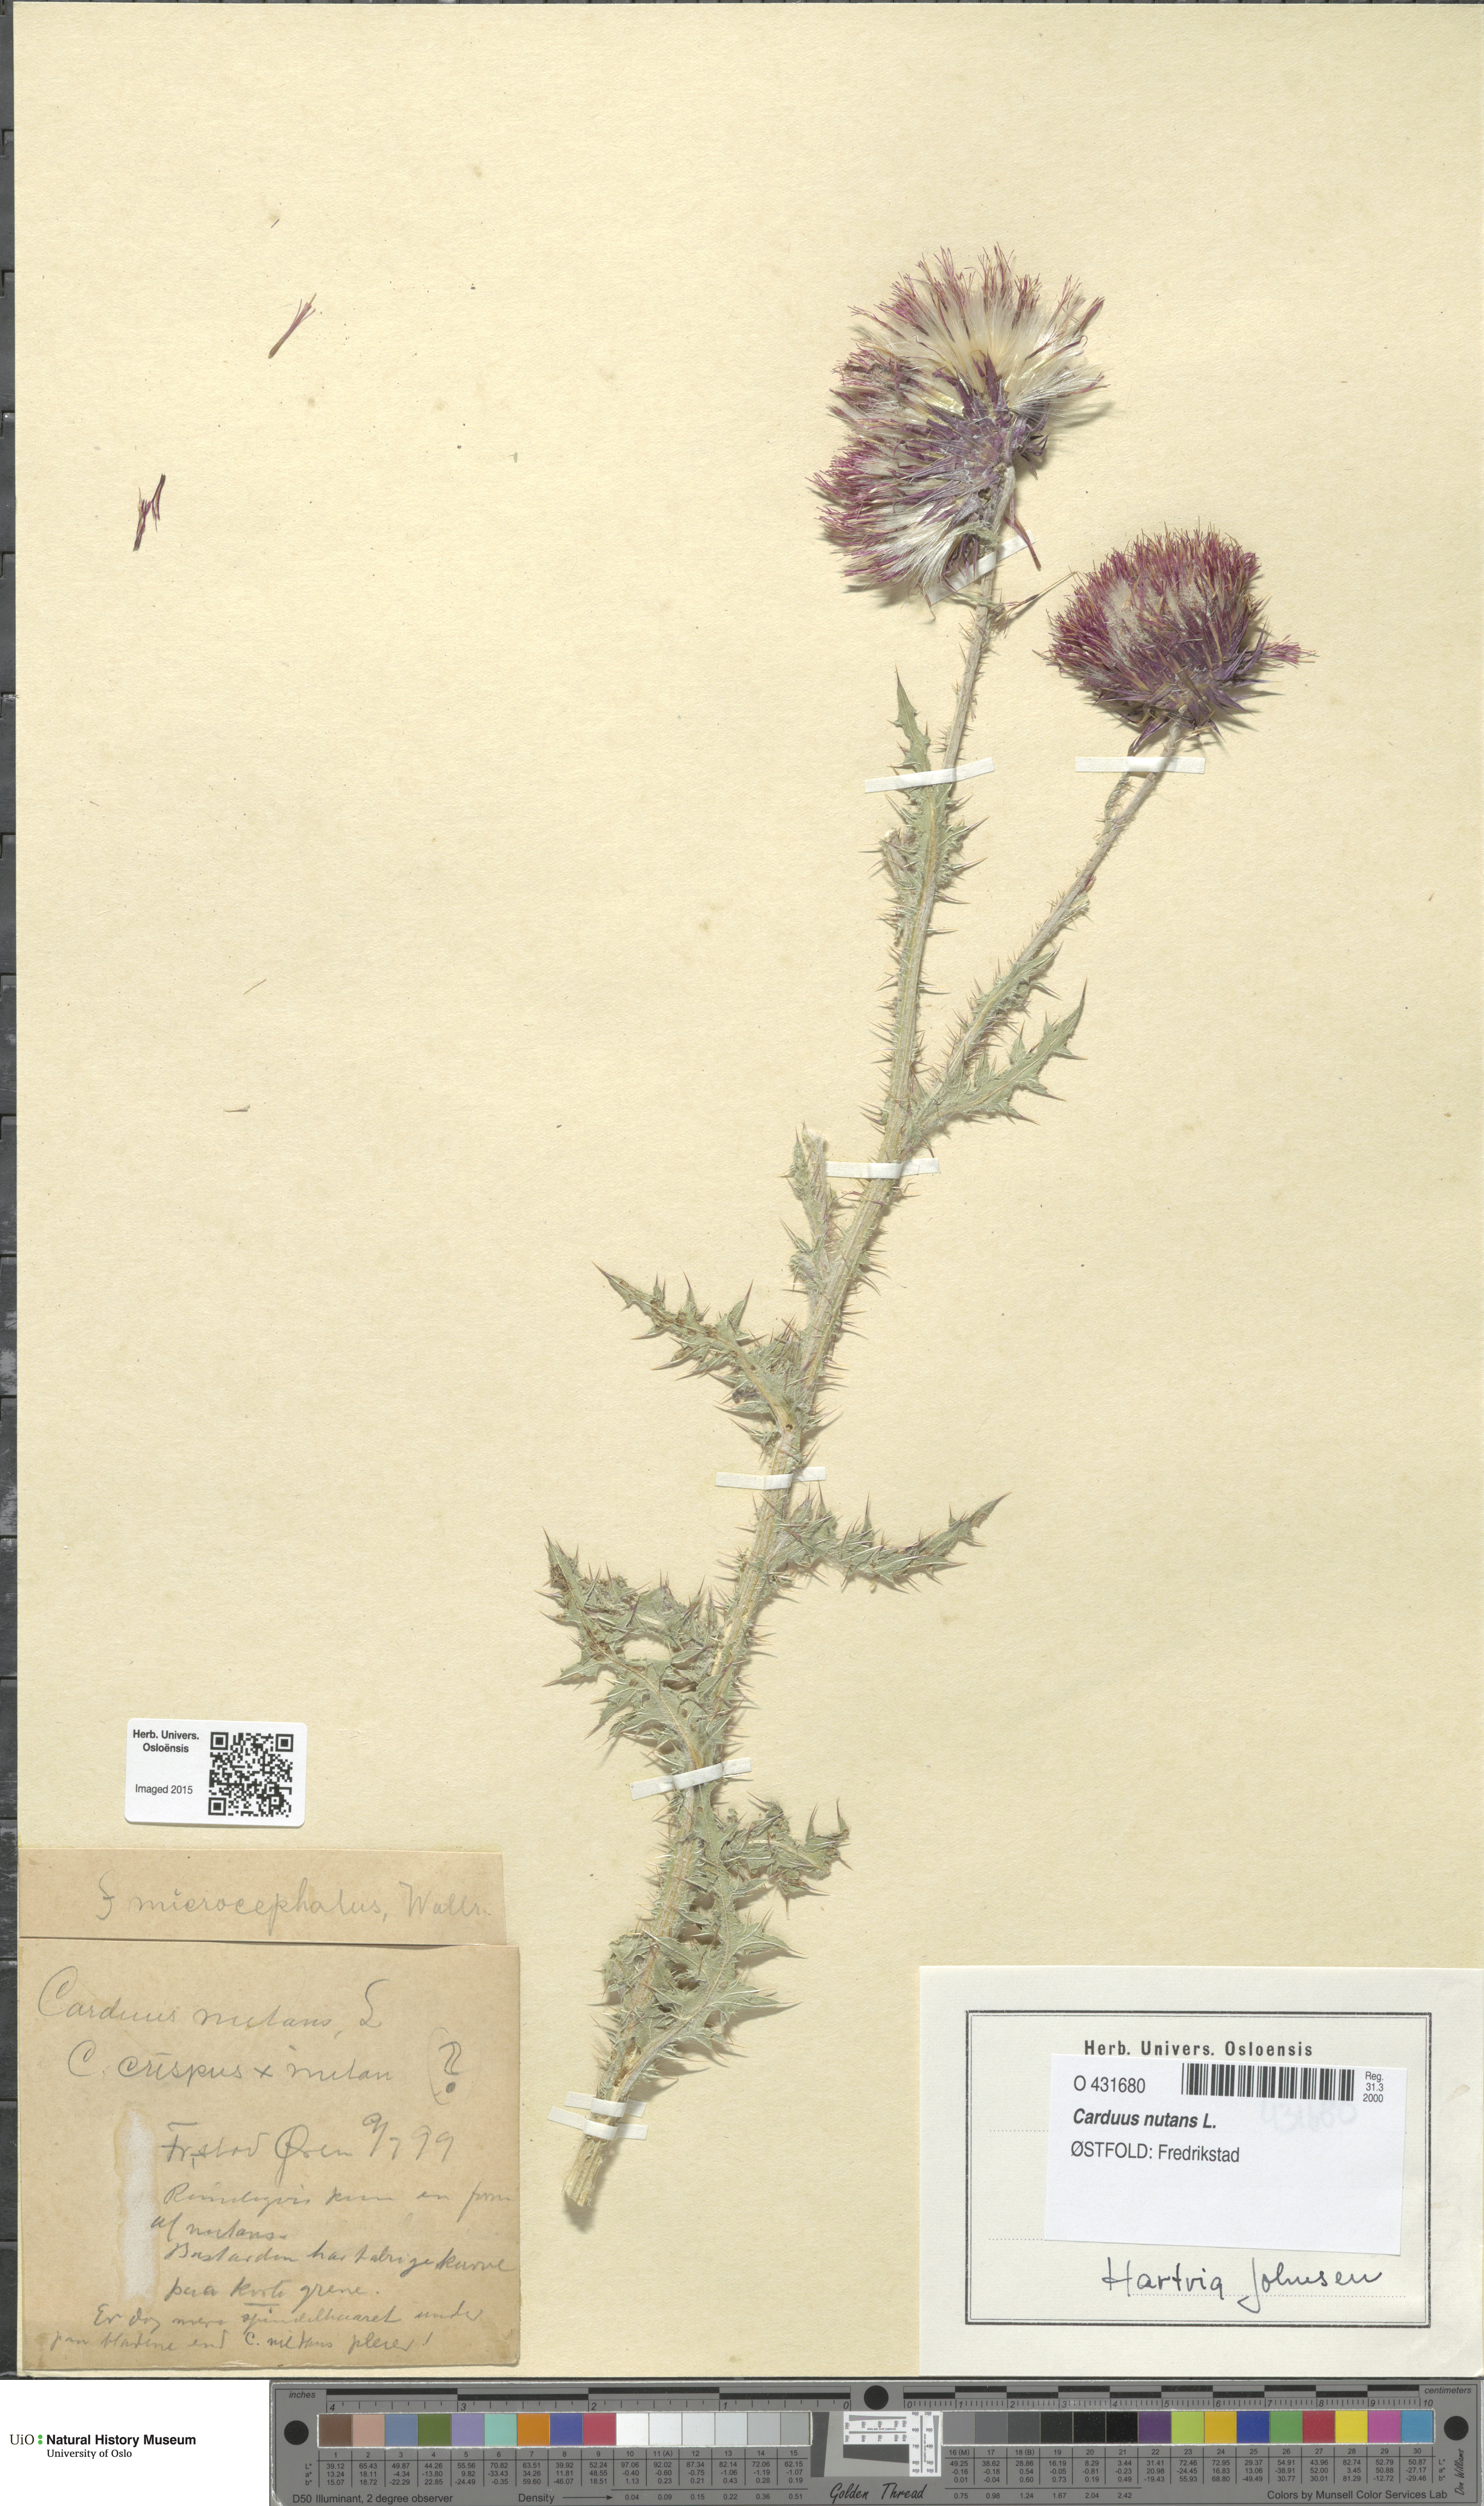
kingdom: Plantae
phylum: Tracheophyta
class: Magnoliopsida
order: Asterales
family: Asteraceae
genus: Carduus
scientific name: Carduus nutans
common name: Musk thistle
